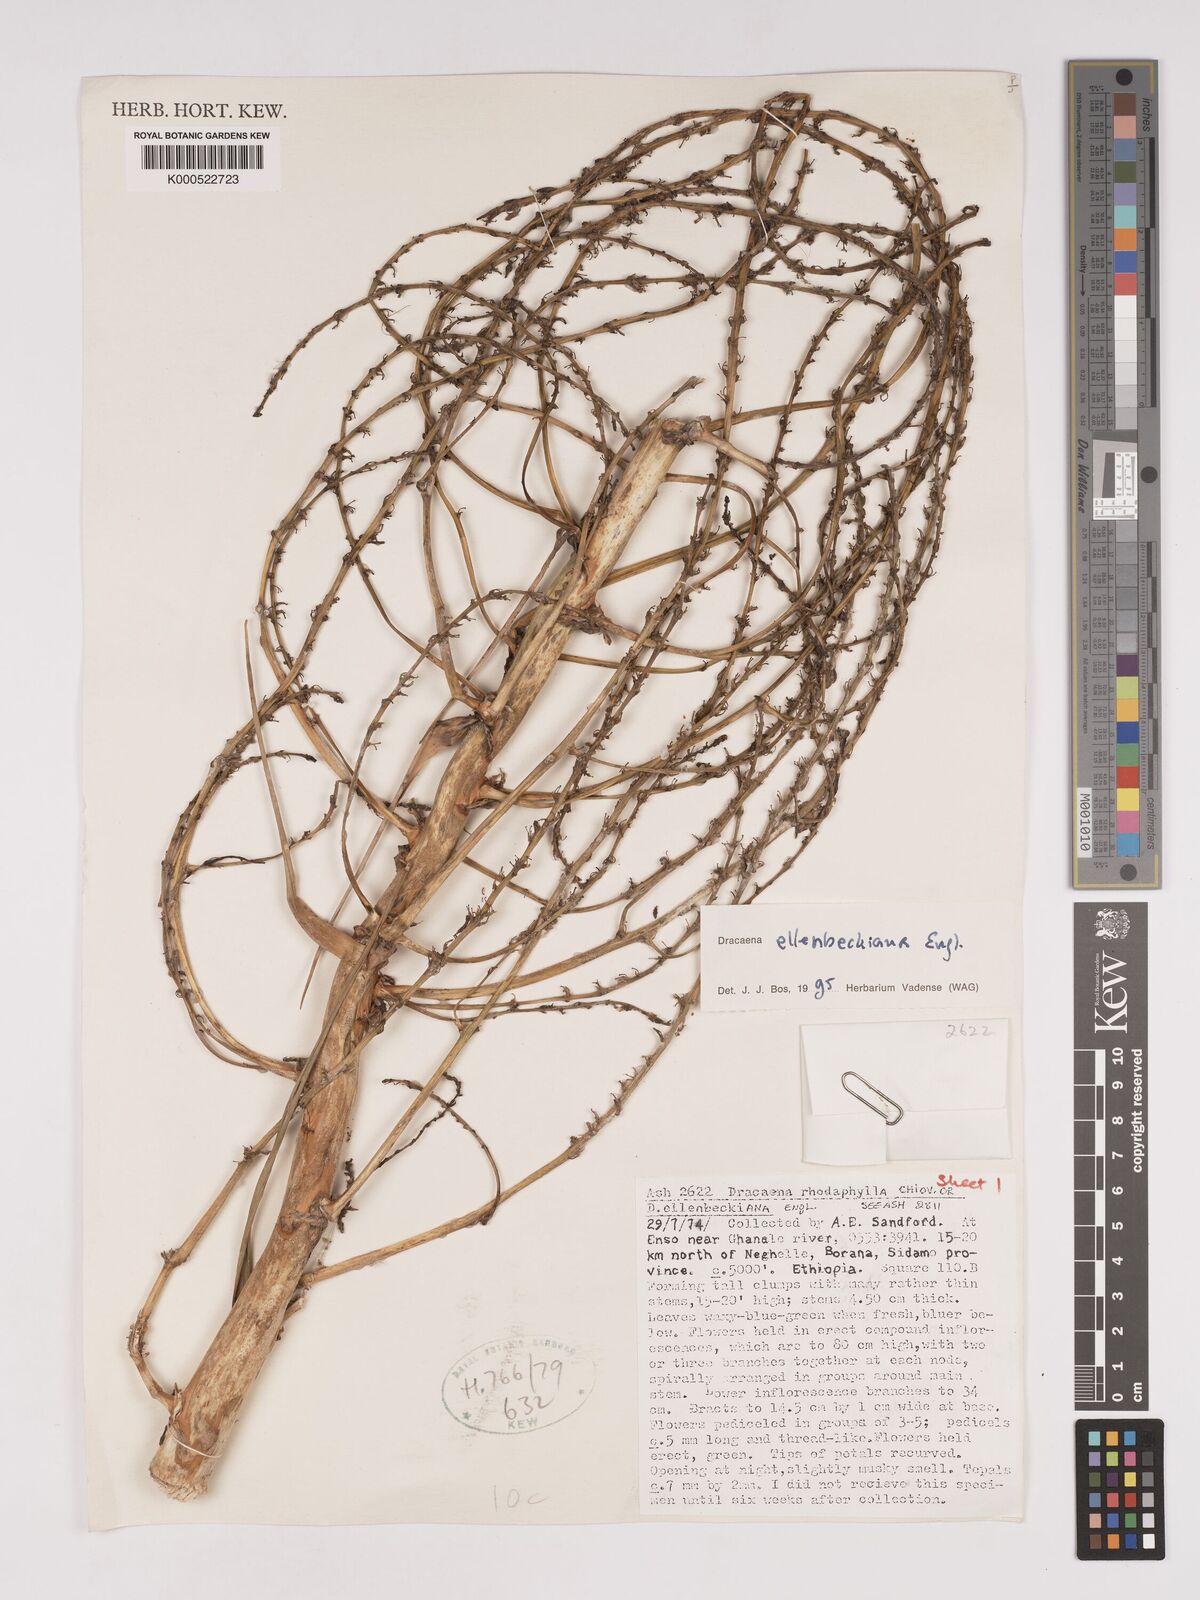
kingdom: Plantae
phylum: Tracheophyta
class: Liliopsida
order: Asparagales
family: Asparagaceae
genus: Dracaena
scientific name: Dracaena elliptica
